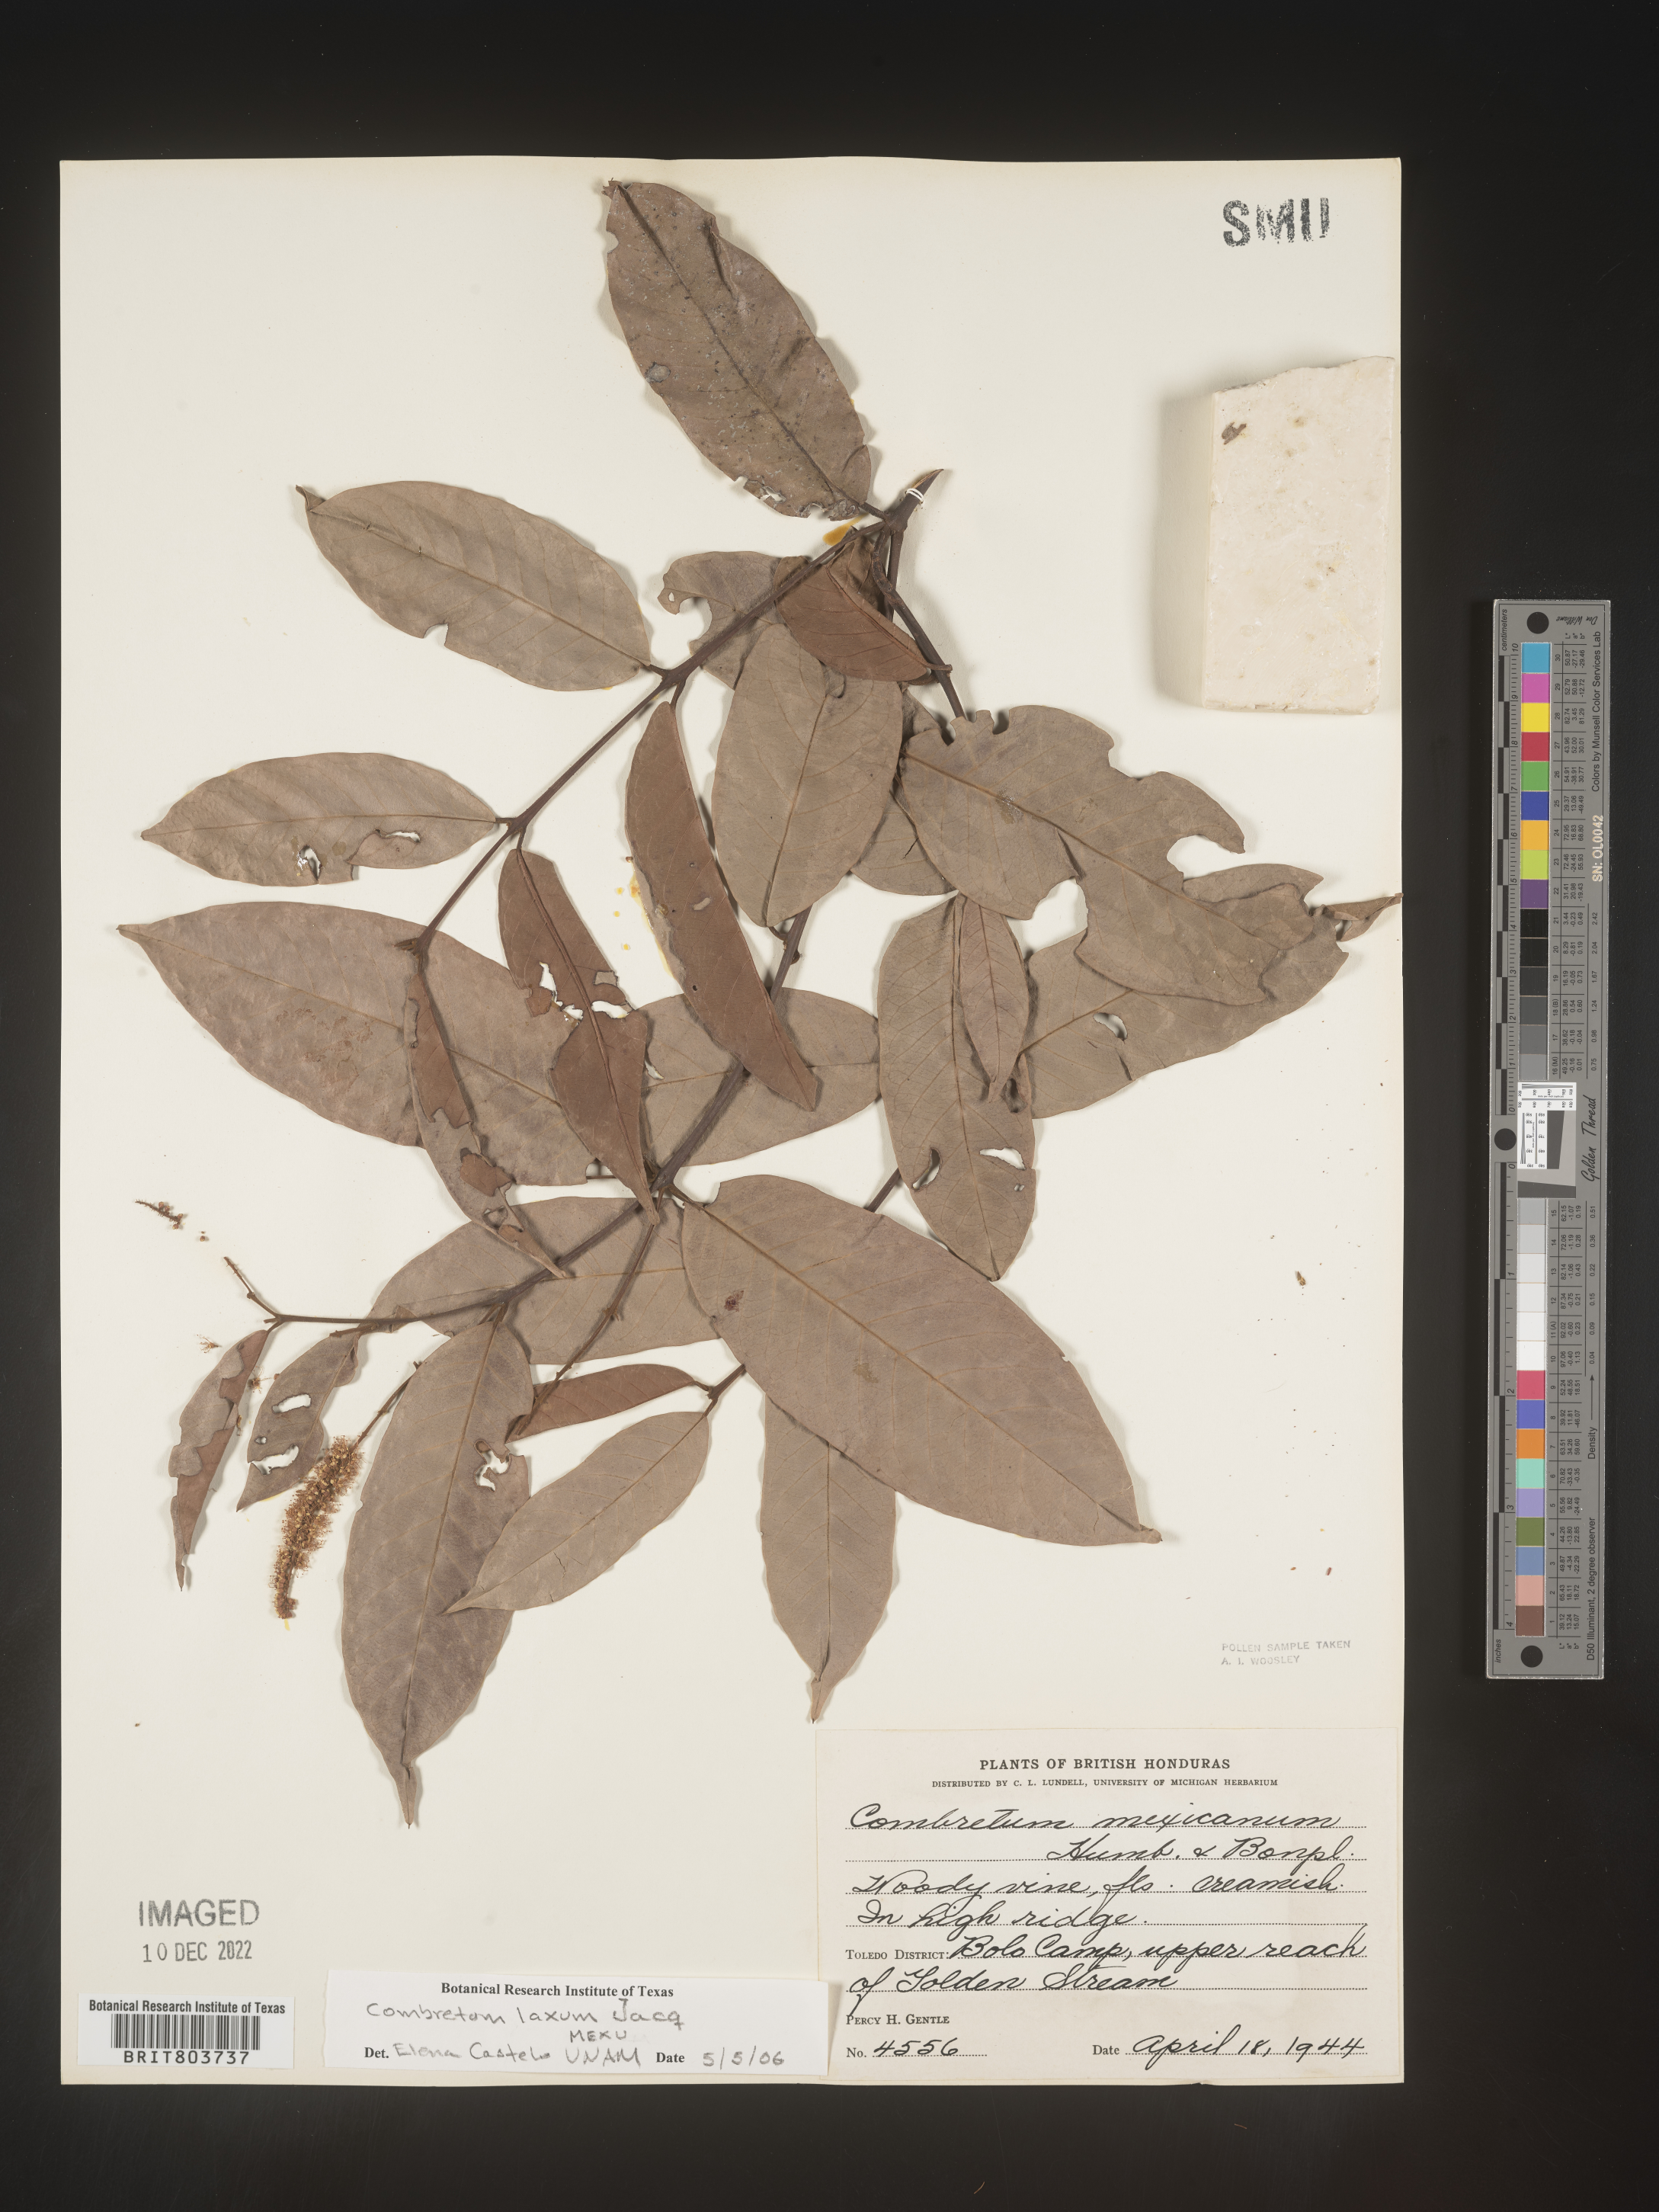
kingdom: Plantae
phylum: Tracheophyta
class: Magnoliopsida
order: Myrtales
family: Combretaceae
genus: Combretum
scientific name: Combretum
